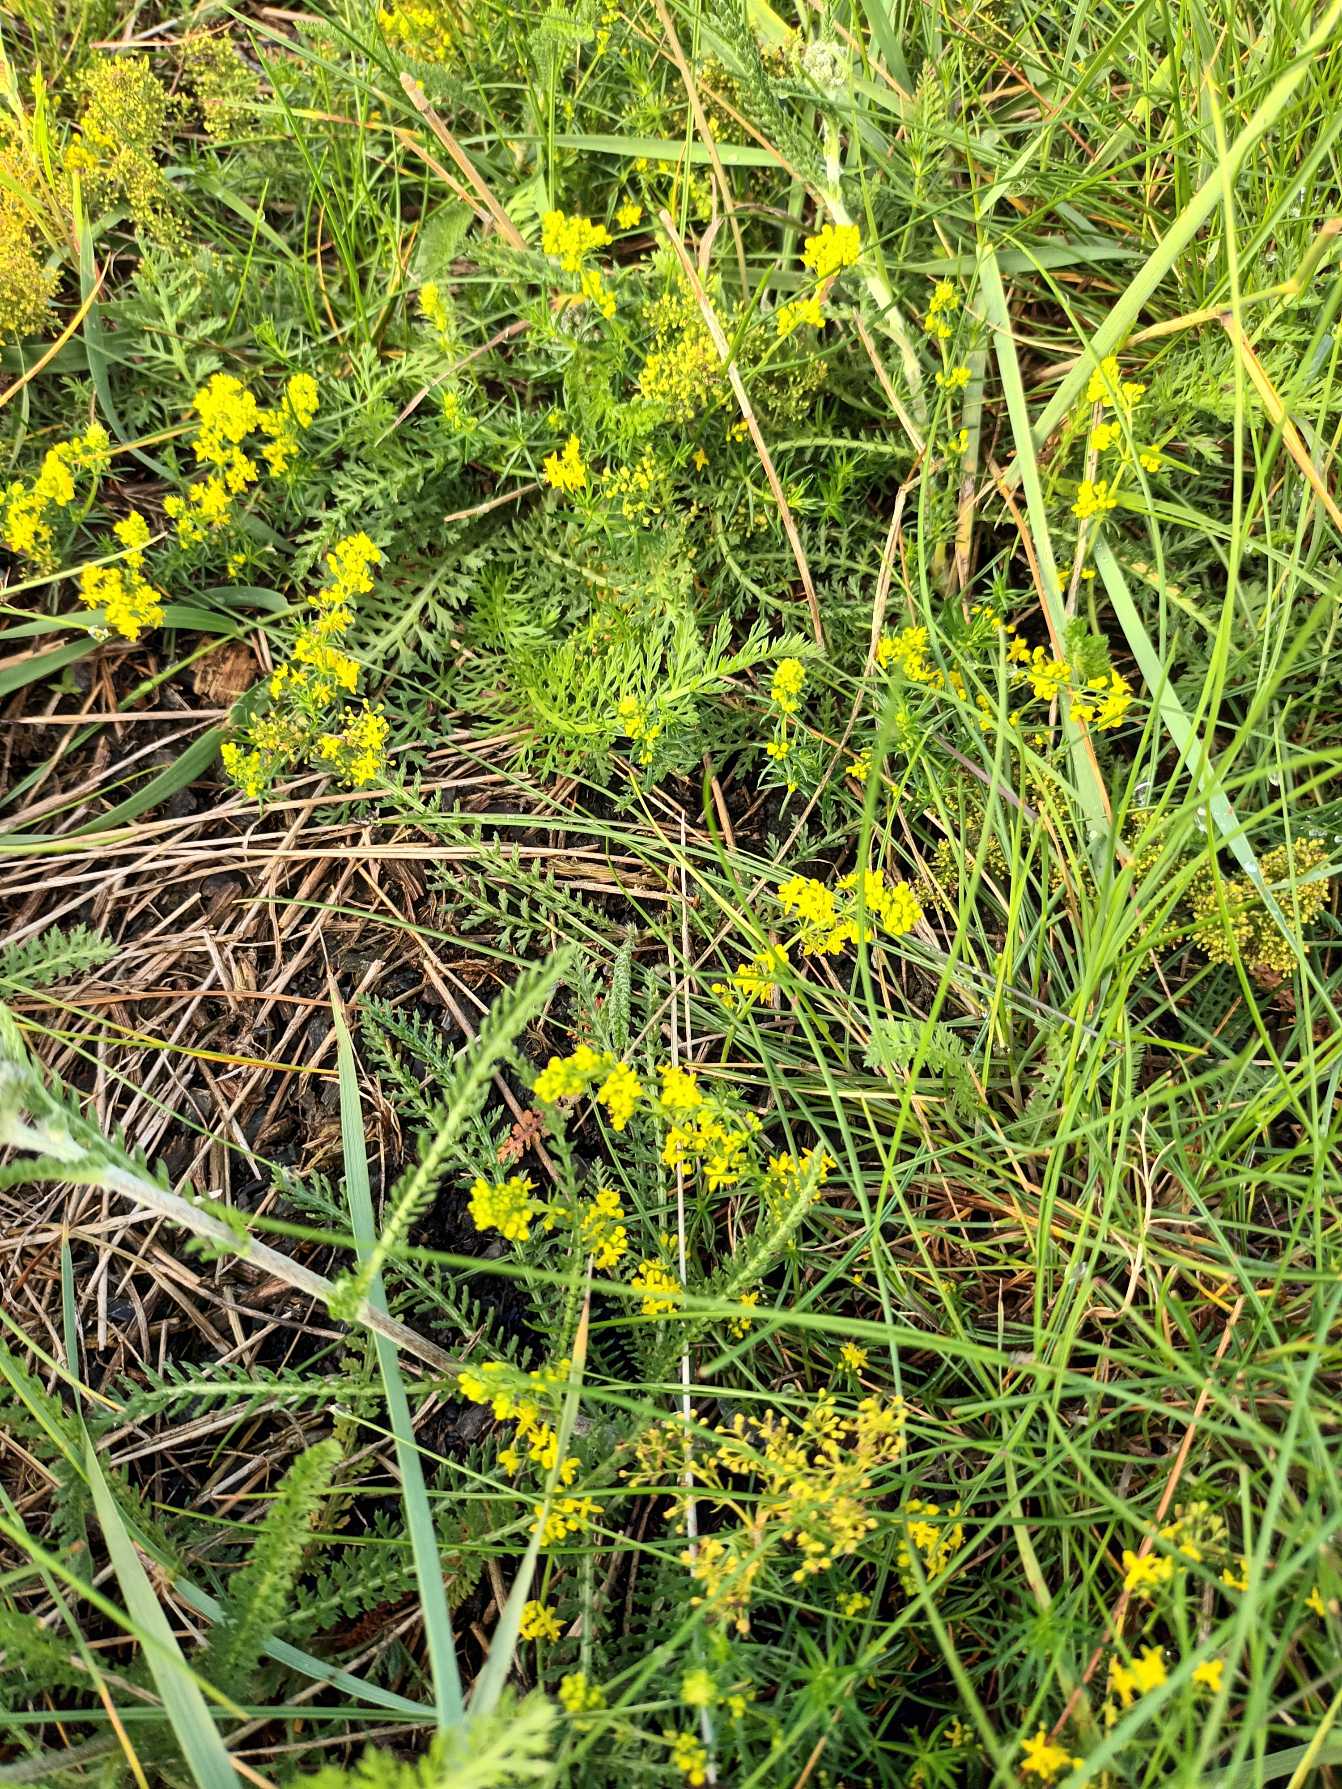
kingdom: Plantae
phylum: Tracheophyta
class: Magnoliopsida
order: Gentianales
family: Rubiaceae
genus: Galium
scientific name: Galium verum
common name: Gul snerre
